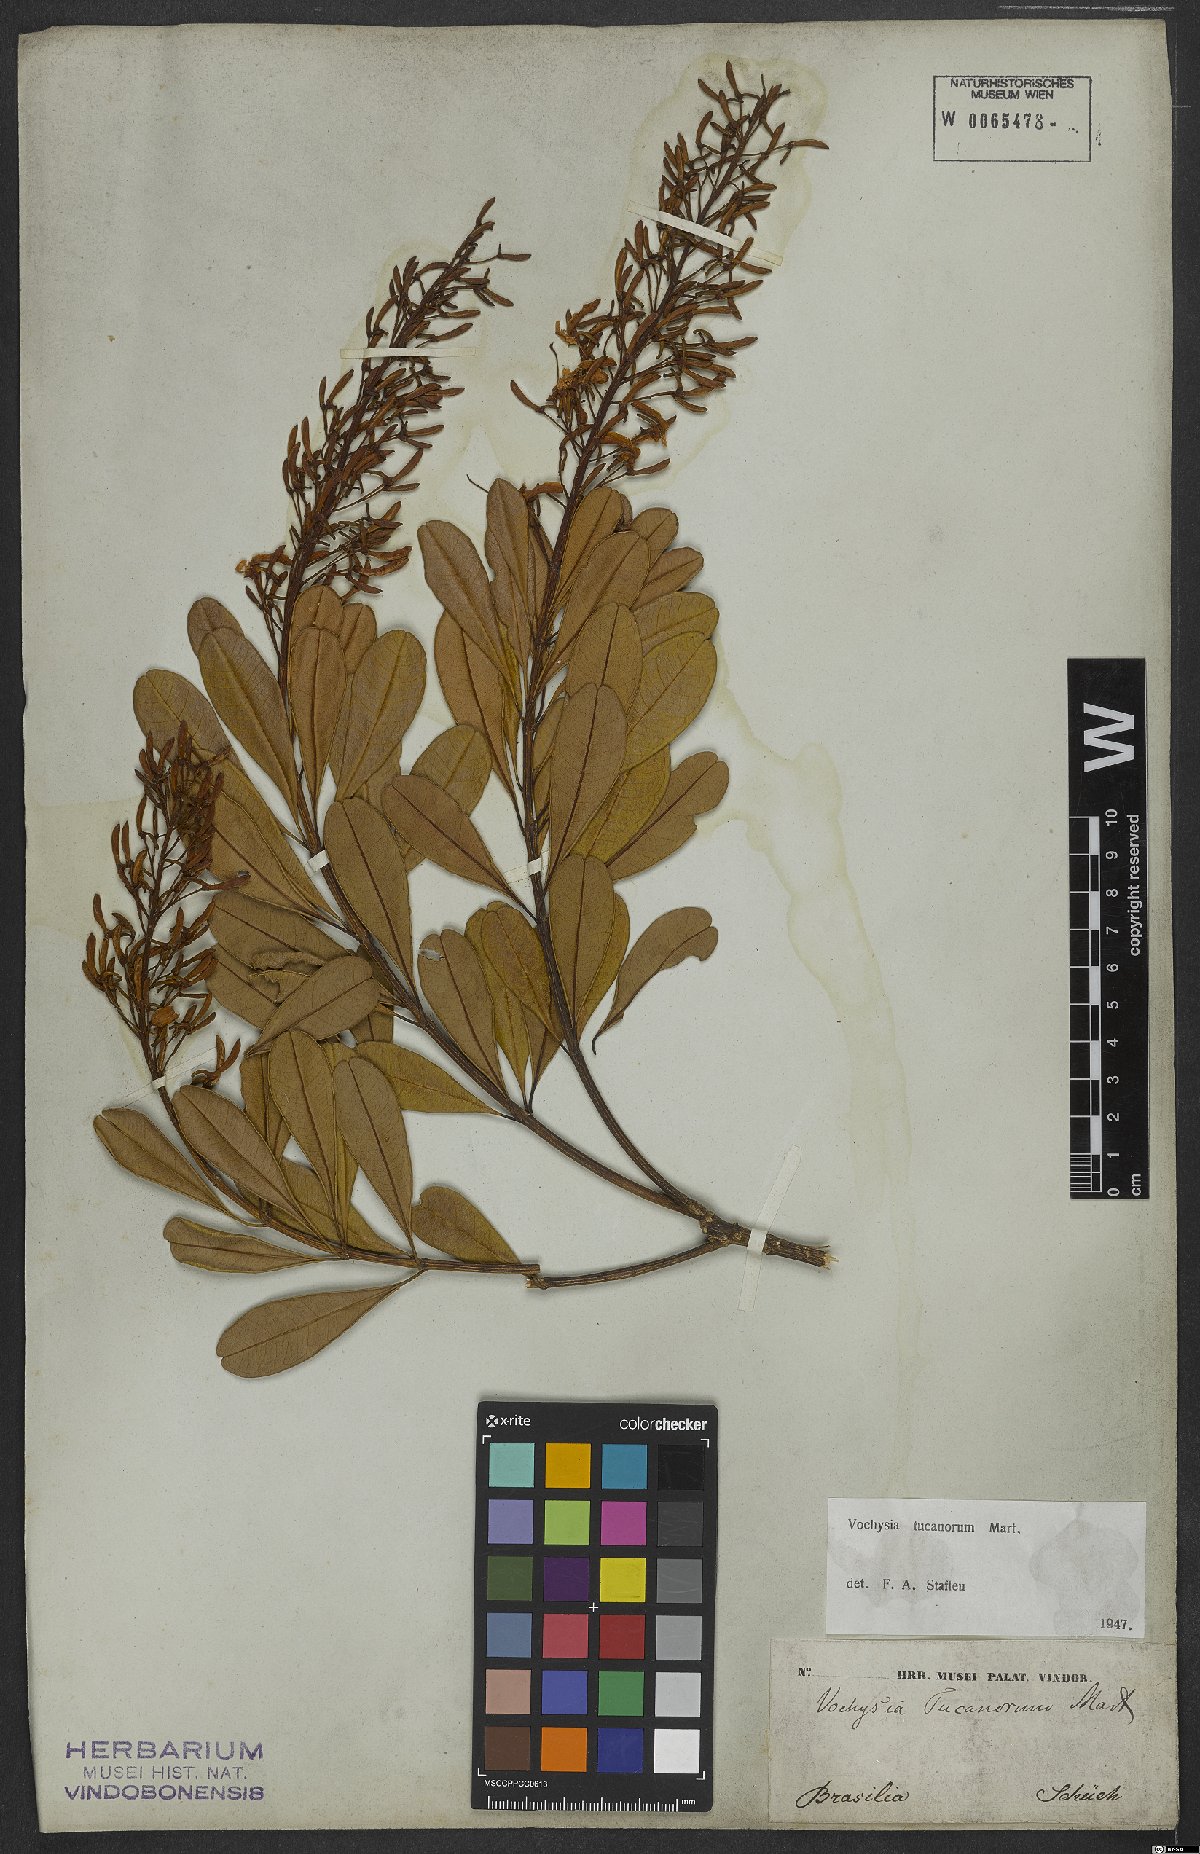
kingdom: Plantae
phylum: Tracheophyta
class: Magnoliopsida
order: Myrtales
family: Vochysiaceae
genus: Vochysia
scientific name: Vochysia tucanorum
